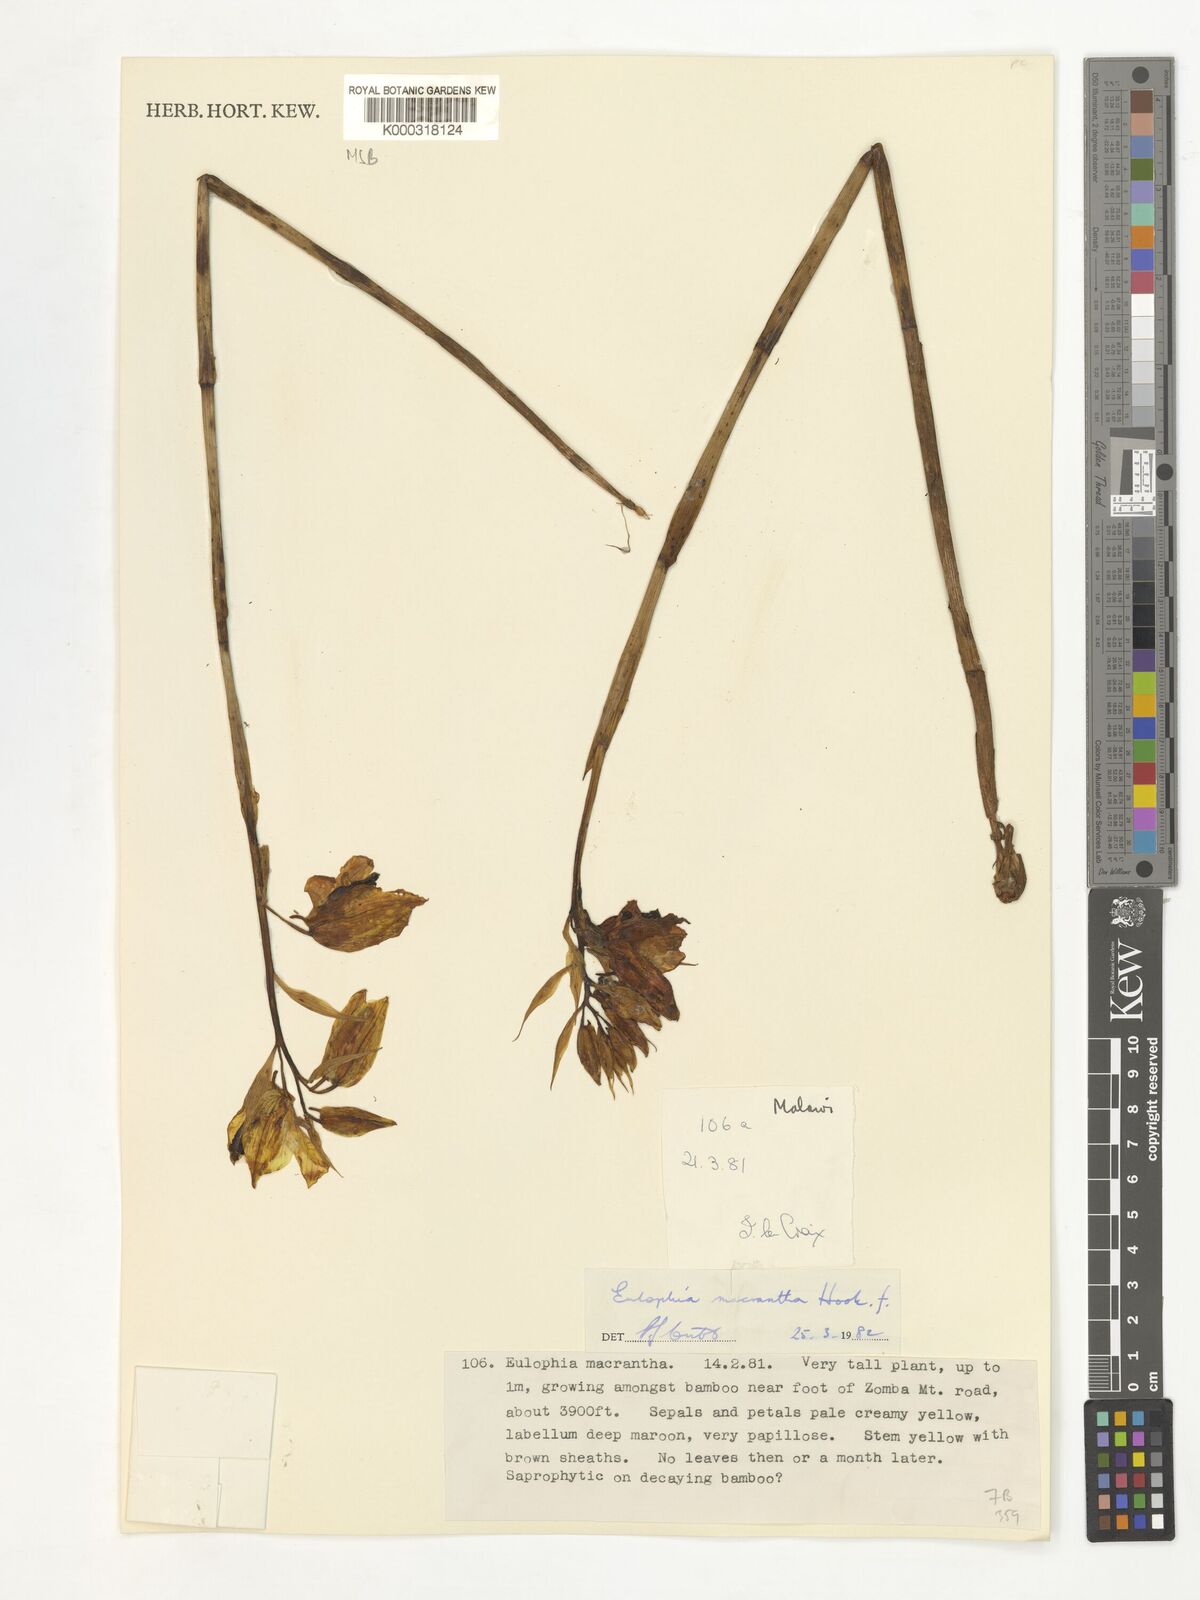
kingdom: Plantae
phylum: Tracheophyta
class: Liliopsida
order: Asparagales
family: Orchidaceae
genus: Eulophia
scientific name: Eulophia macrantha
